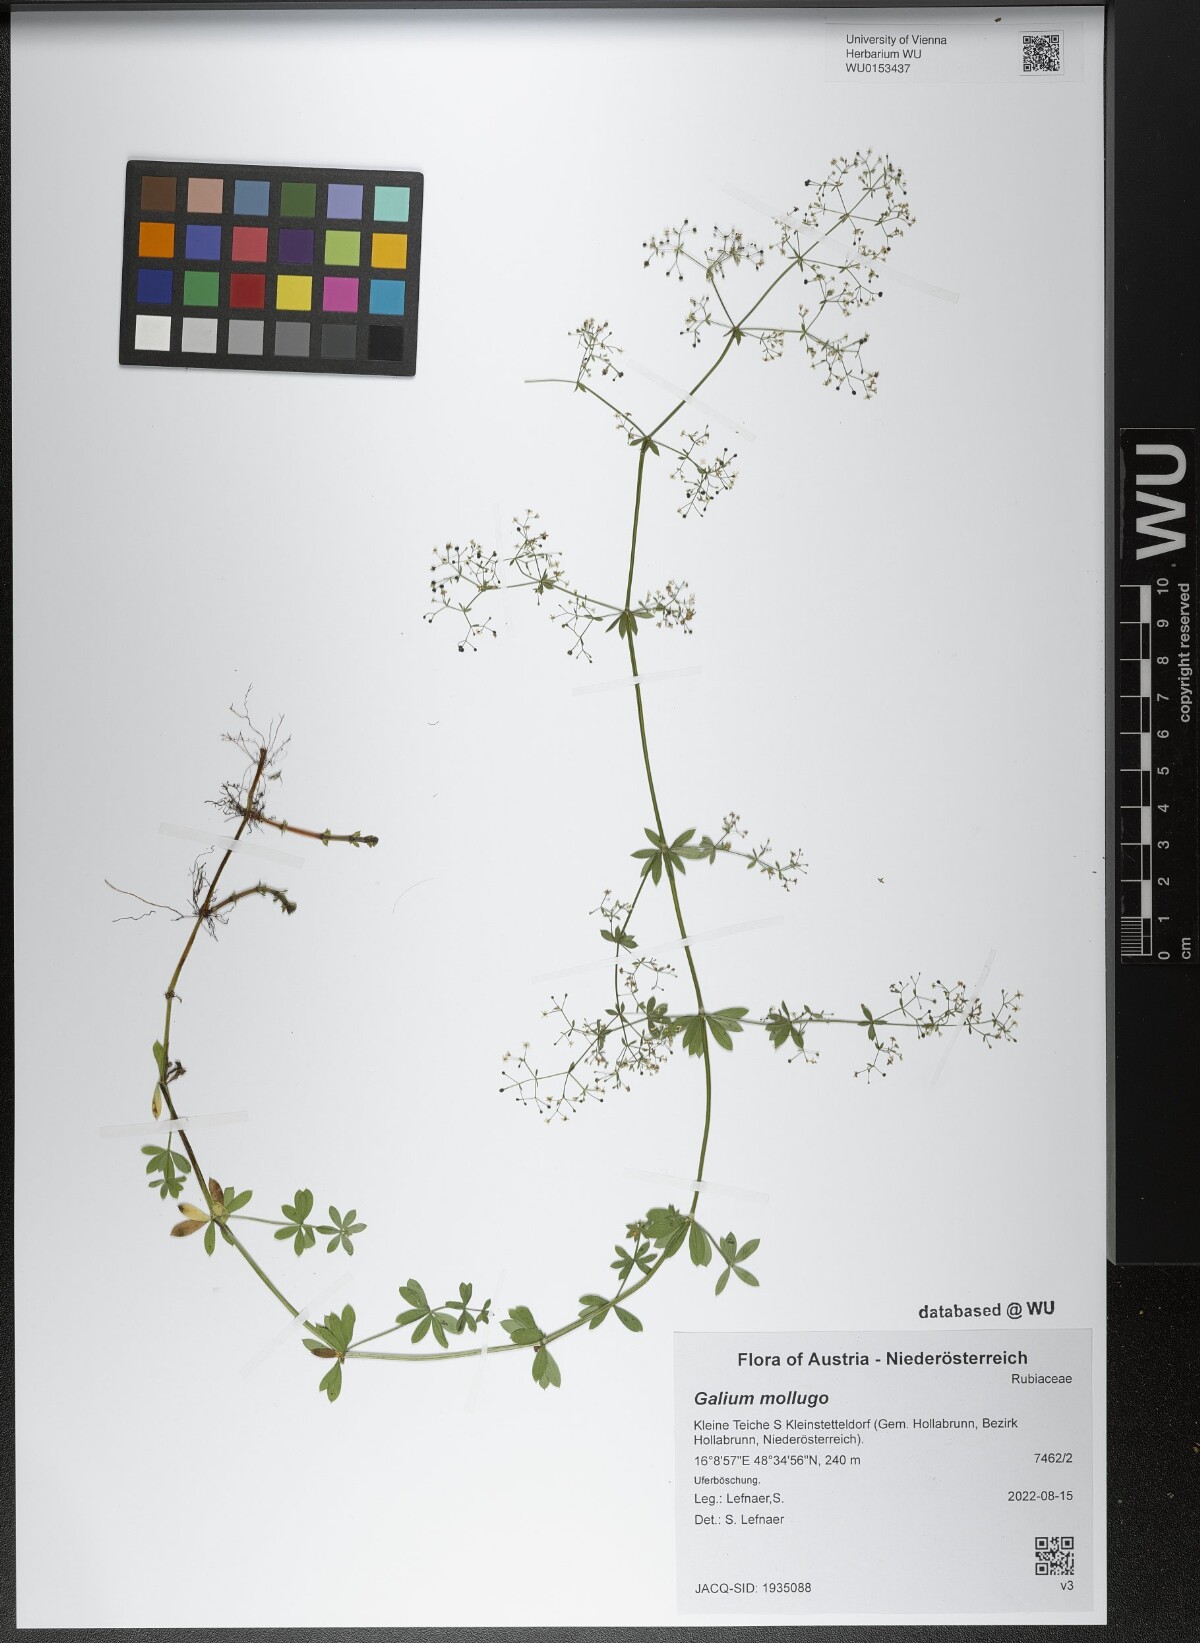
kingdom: Plantae
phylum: Tracheophyta
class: Magnoliopsida
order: Gentianales
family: Rubiaceae
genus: Galium
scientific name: Galium mollugo
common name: Hedge bedstraw
